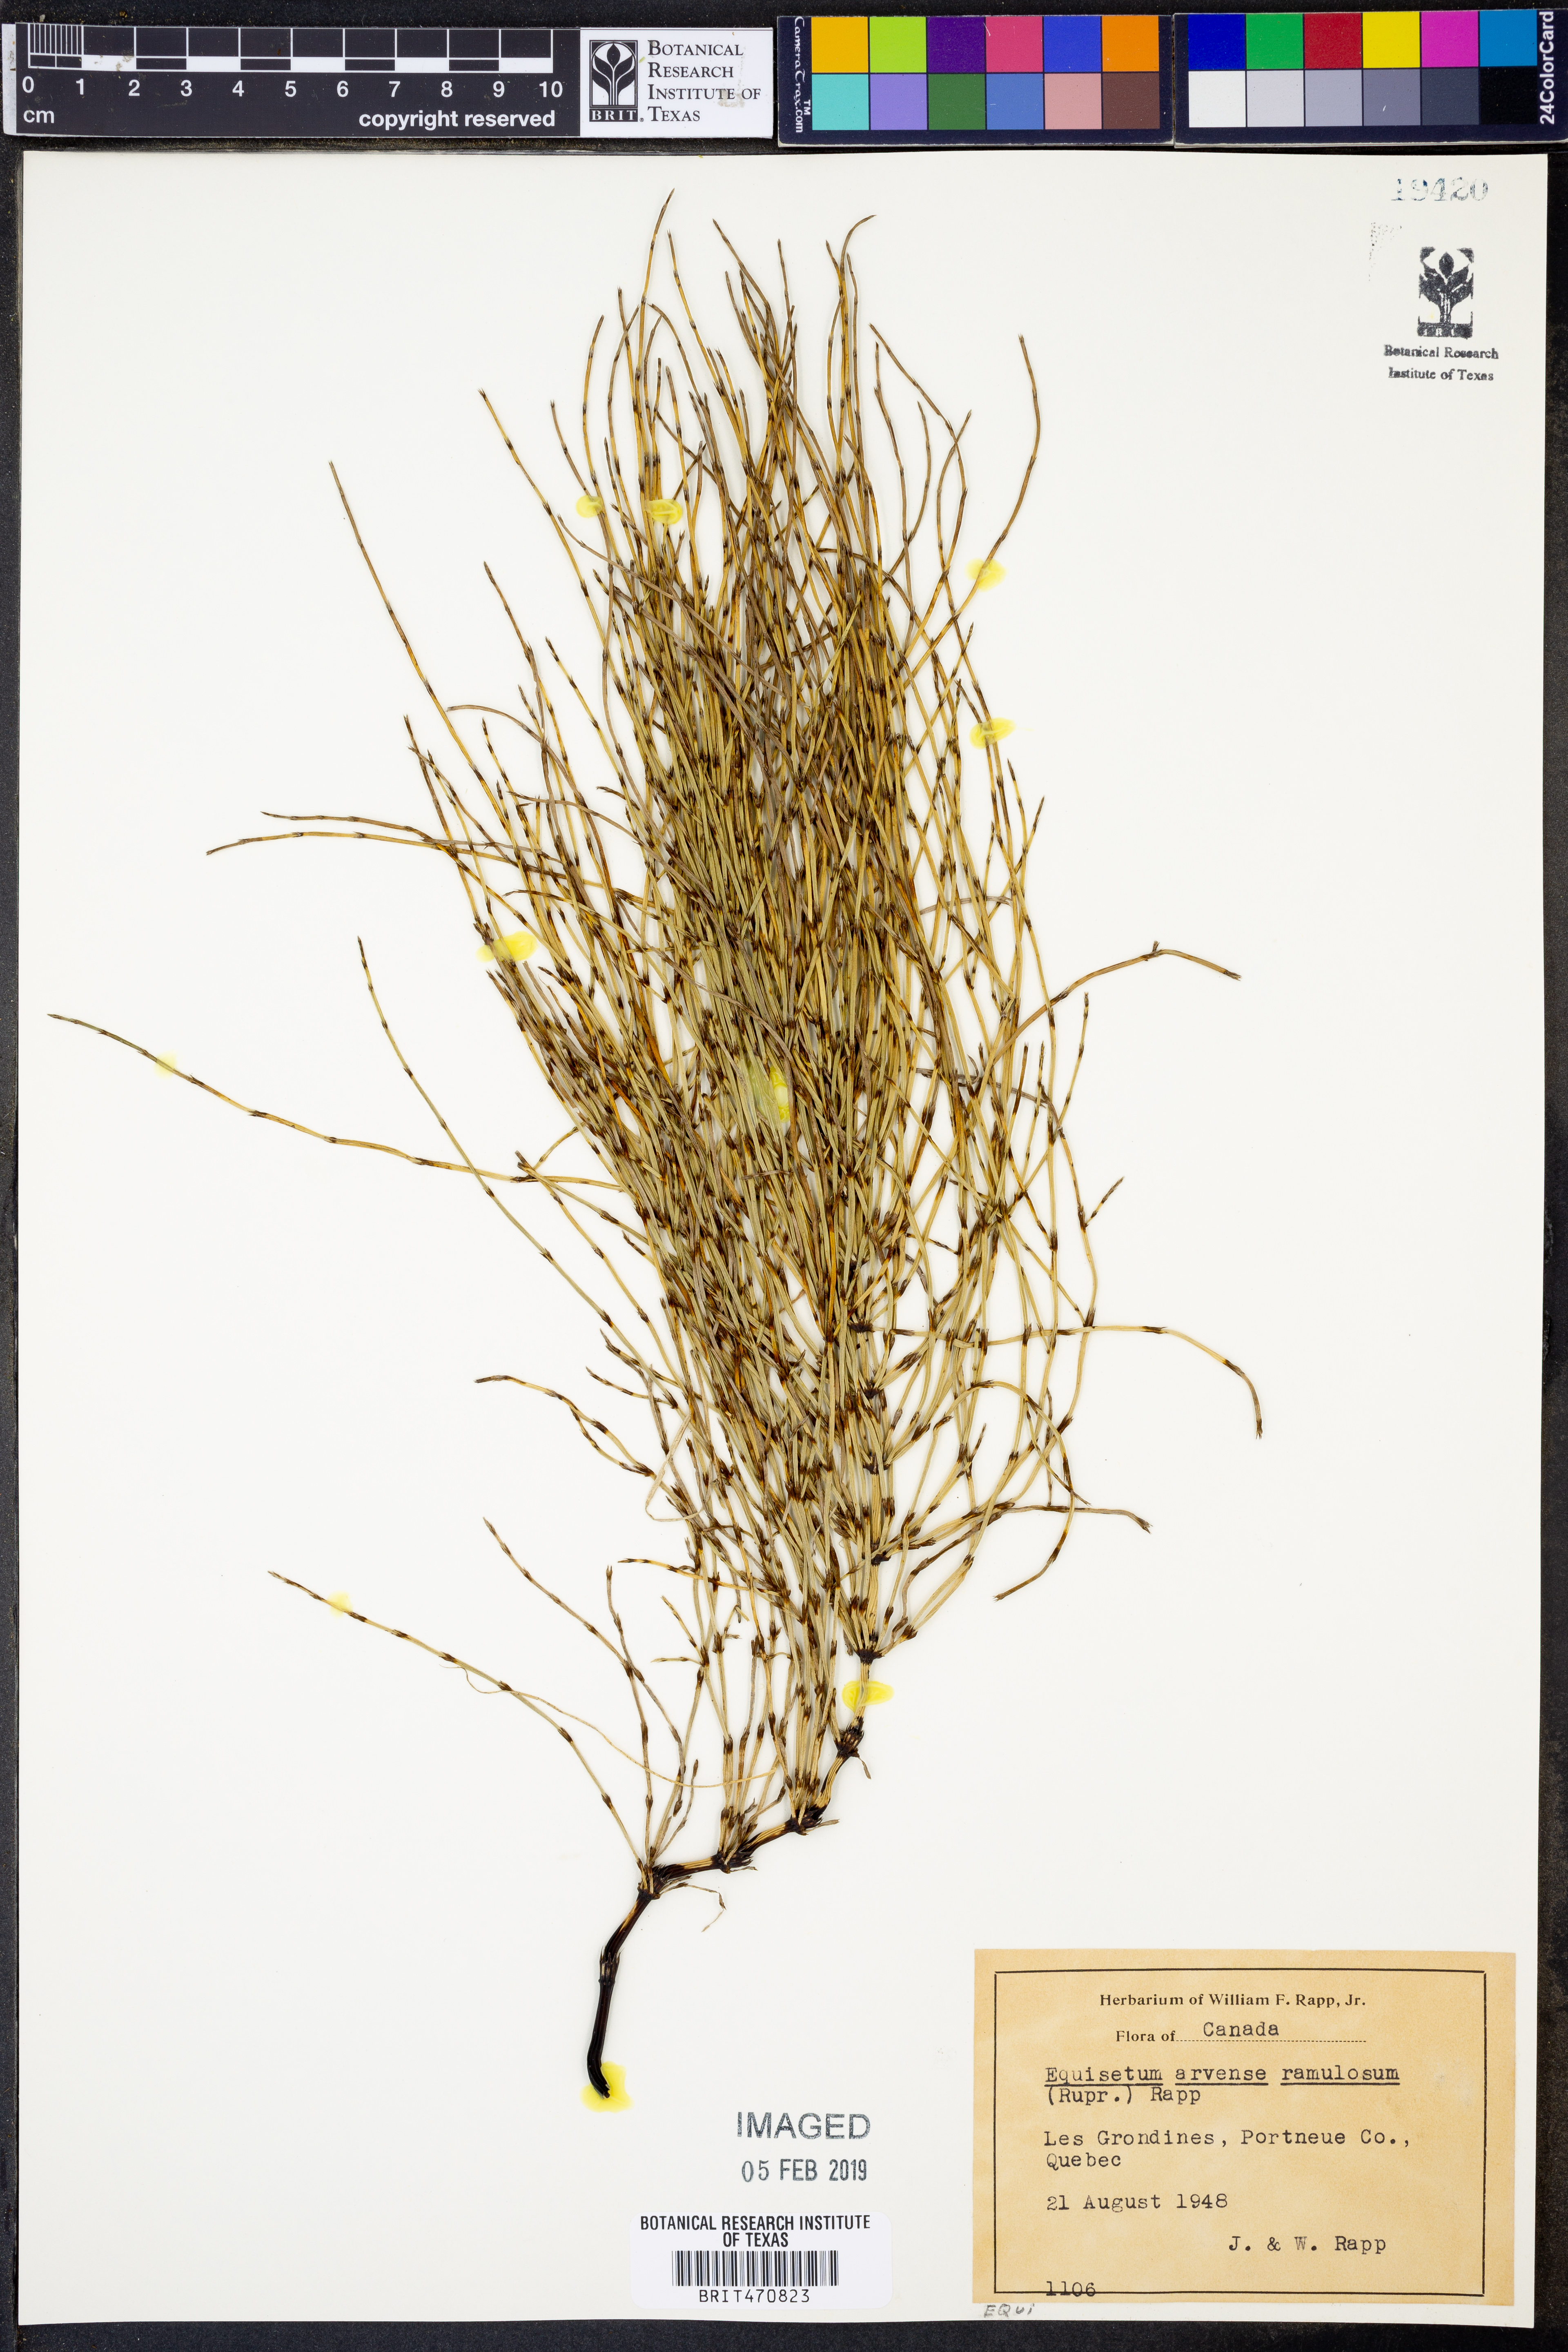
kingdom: Plantae
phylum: Tracheophyta
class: Polypodiopsida
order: Equisetales
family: Equisetaceae
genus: Equisetum
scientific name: Equisetum arvense
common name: Field horsetail
